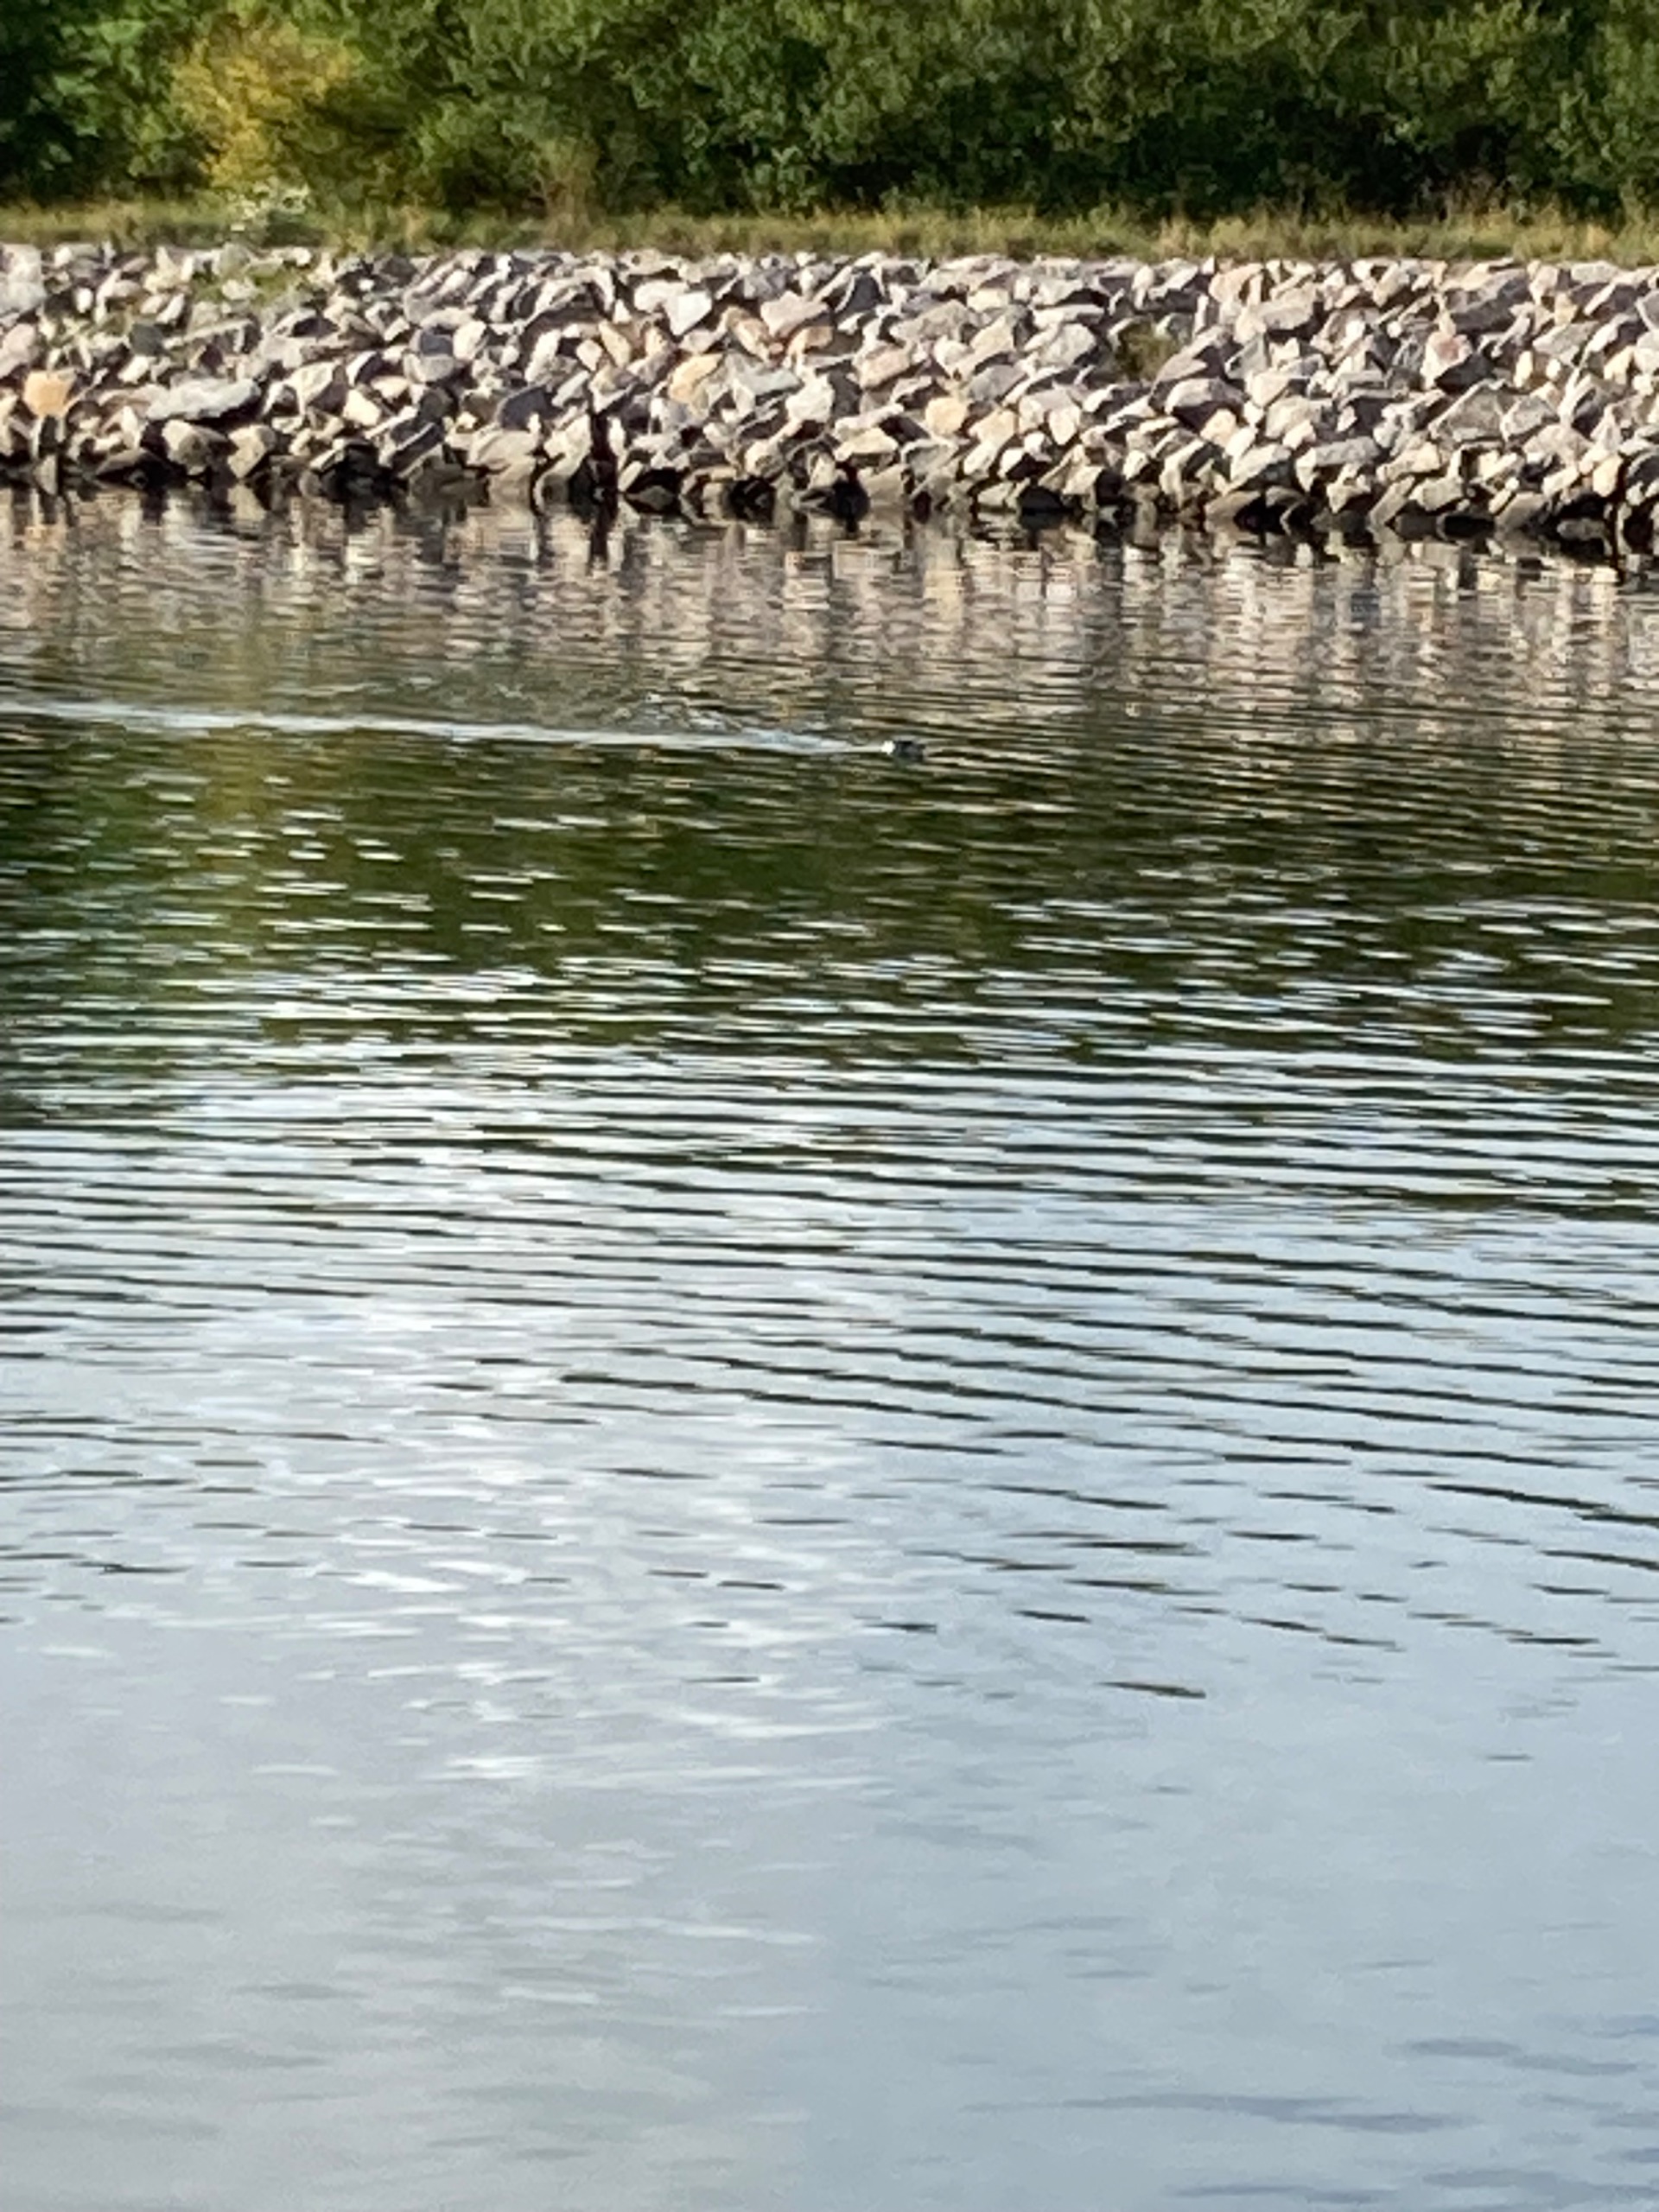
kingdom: Animalia
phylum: Chordata
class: Mammalia
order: Carnivora
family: Phocidae
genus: Phoca
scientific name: Phoca vitulina
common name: Spættet sæl
